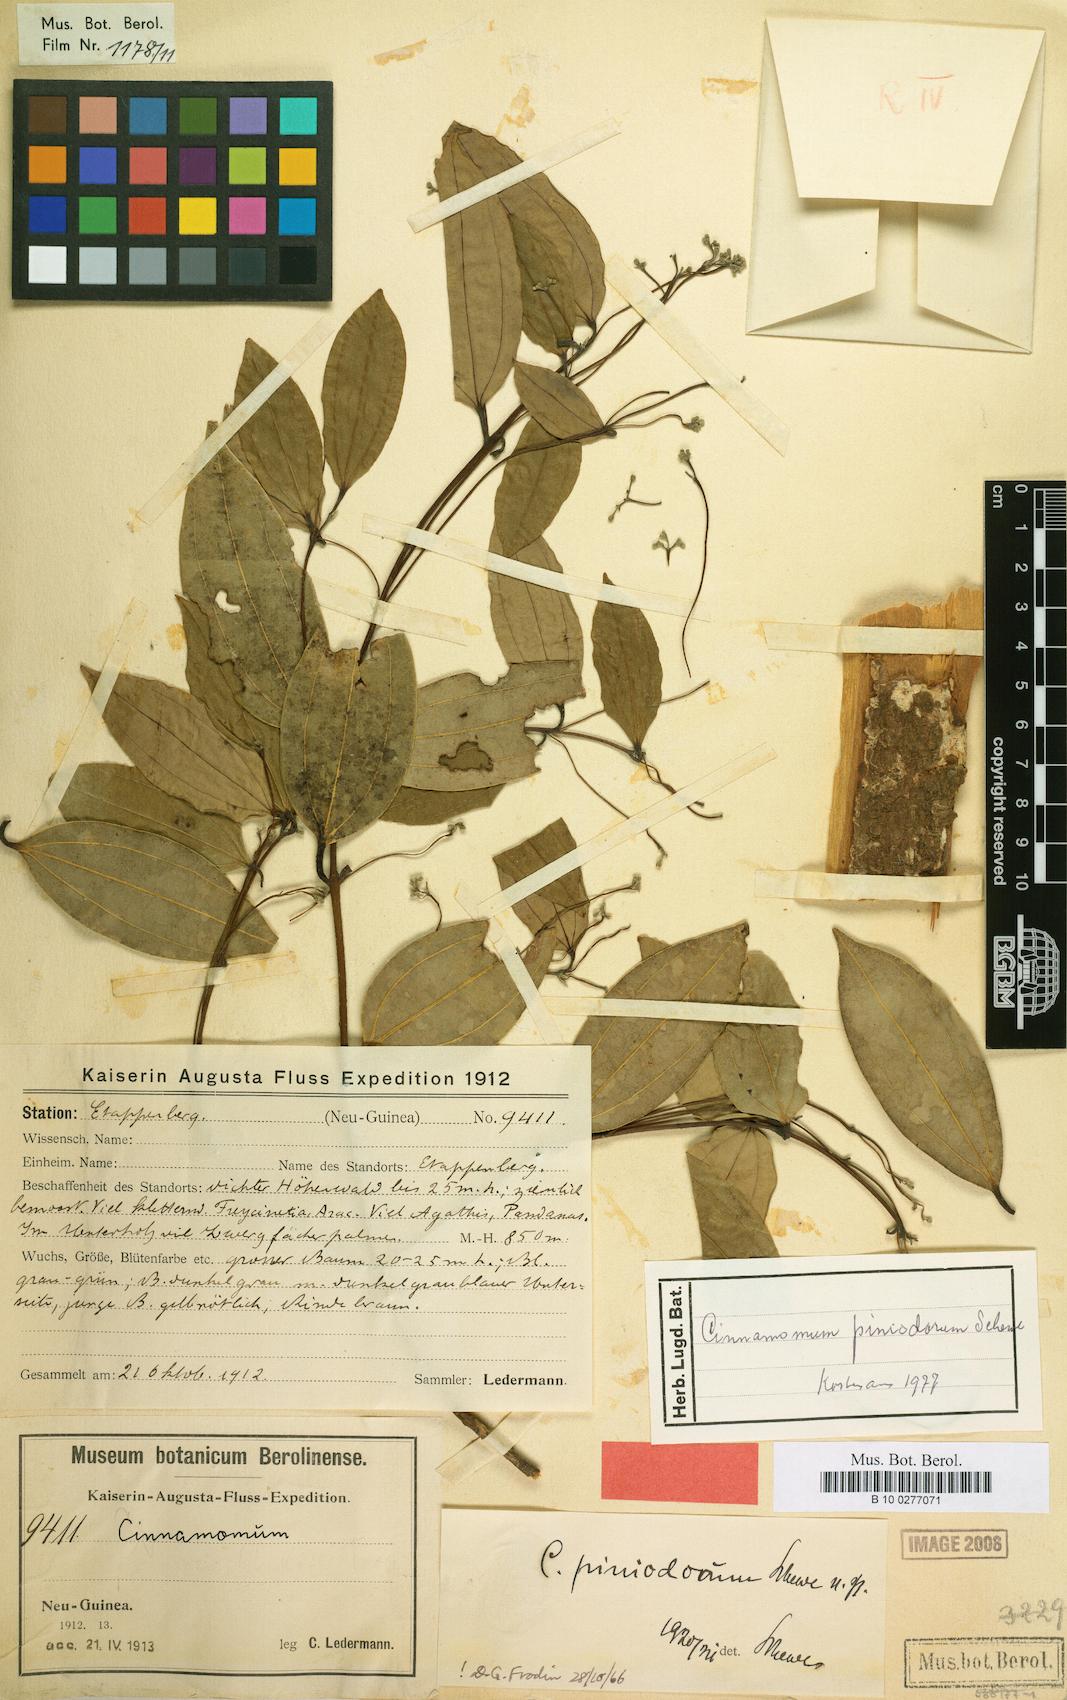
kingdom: Plantae
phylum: Tracheophyta
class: Magnoliopsida
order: Laurales
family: Lauraceae
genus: Cinnamomum
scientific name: Cinnamomum piniodorum
